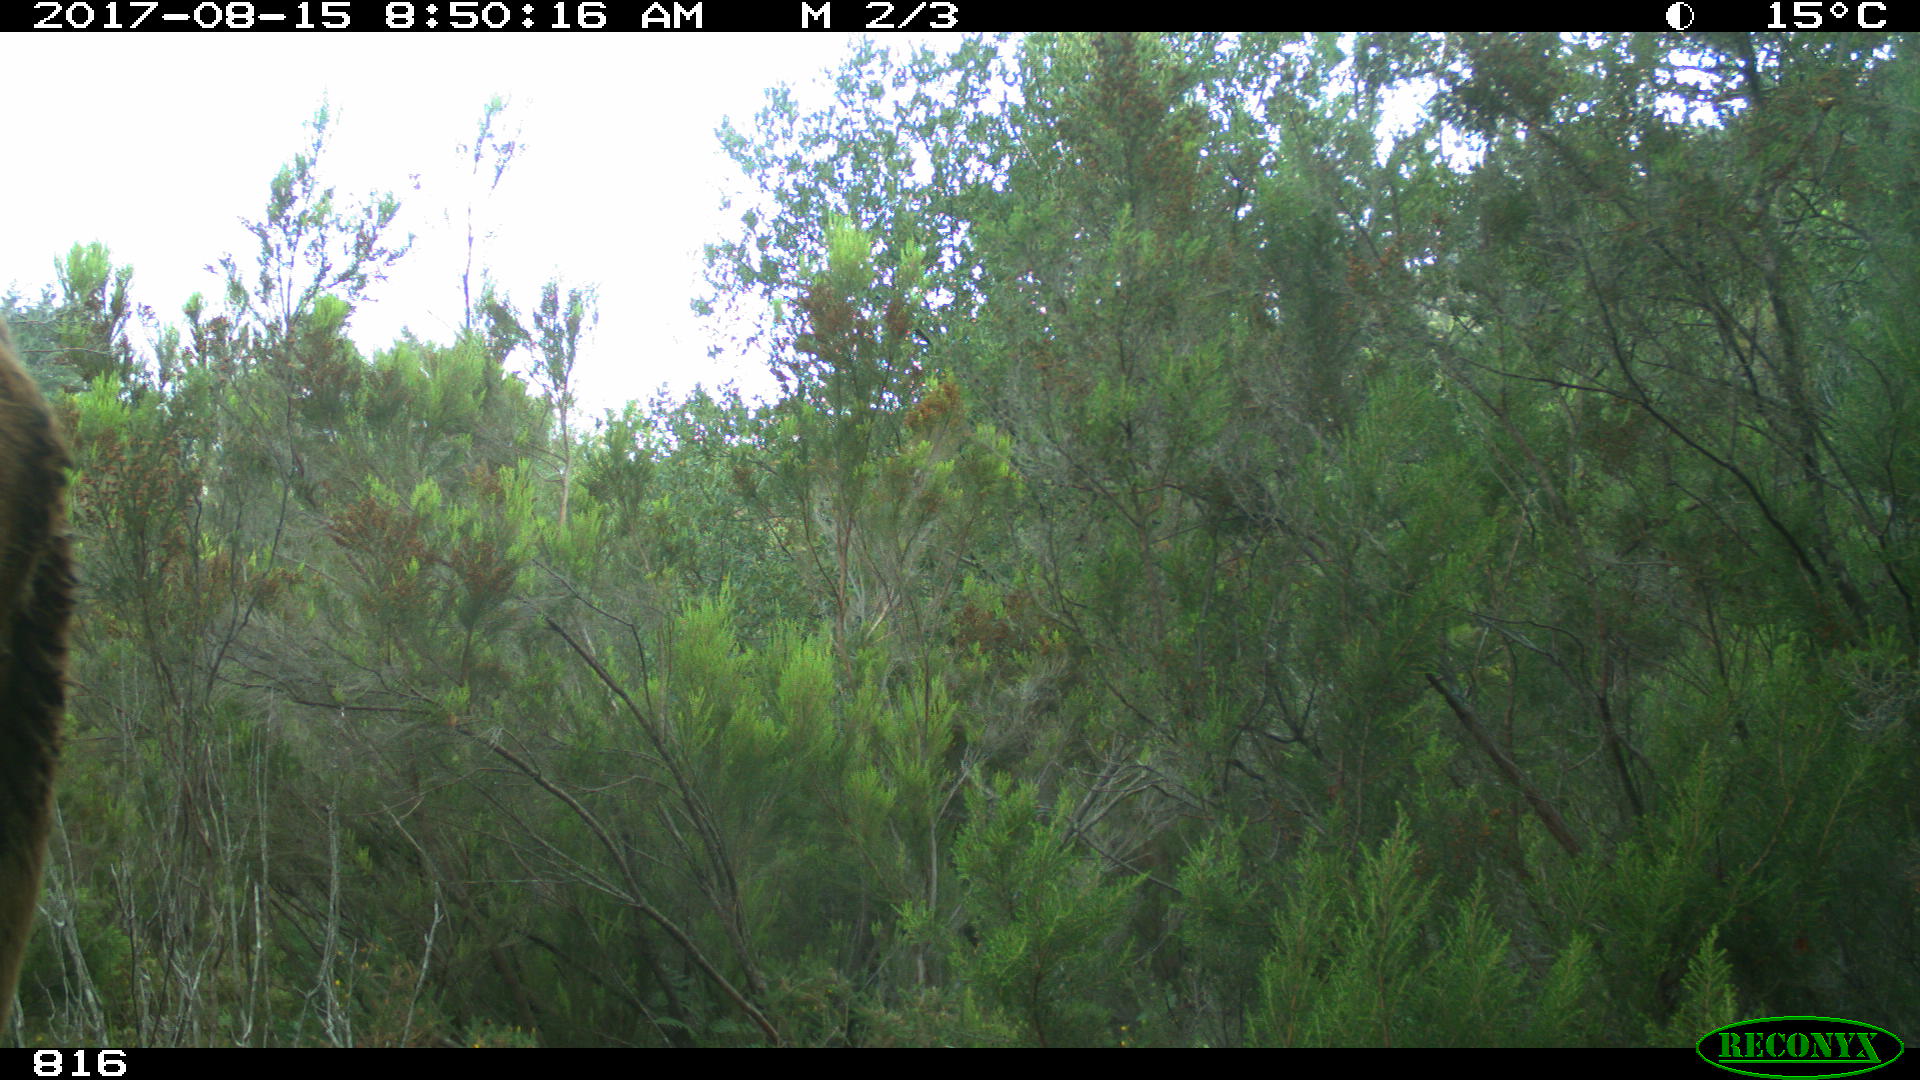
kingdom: Animalia
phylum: Chordata
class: Mammalia
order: Artiodactyla
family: Bovidae
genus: Bos
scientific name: Bos taurus
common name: Domesticated cattle
